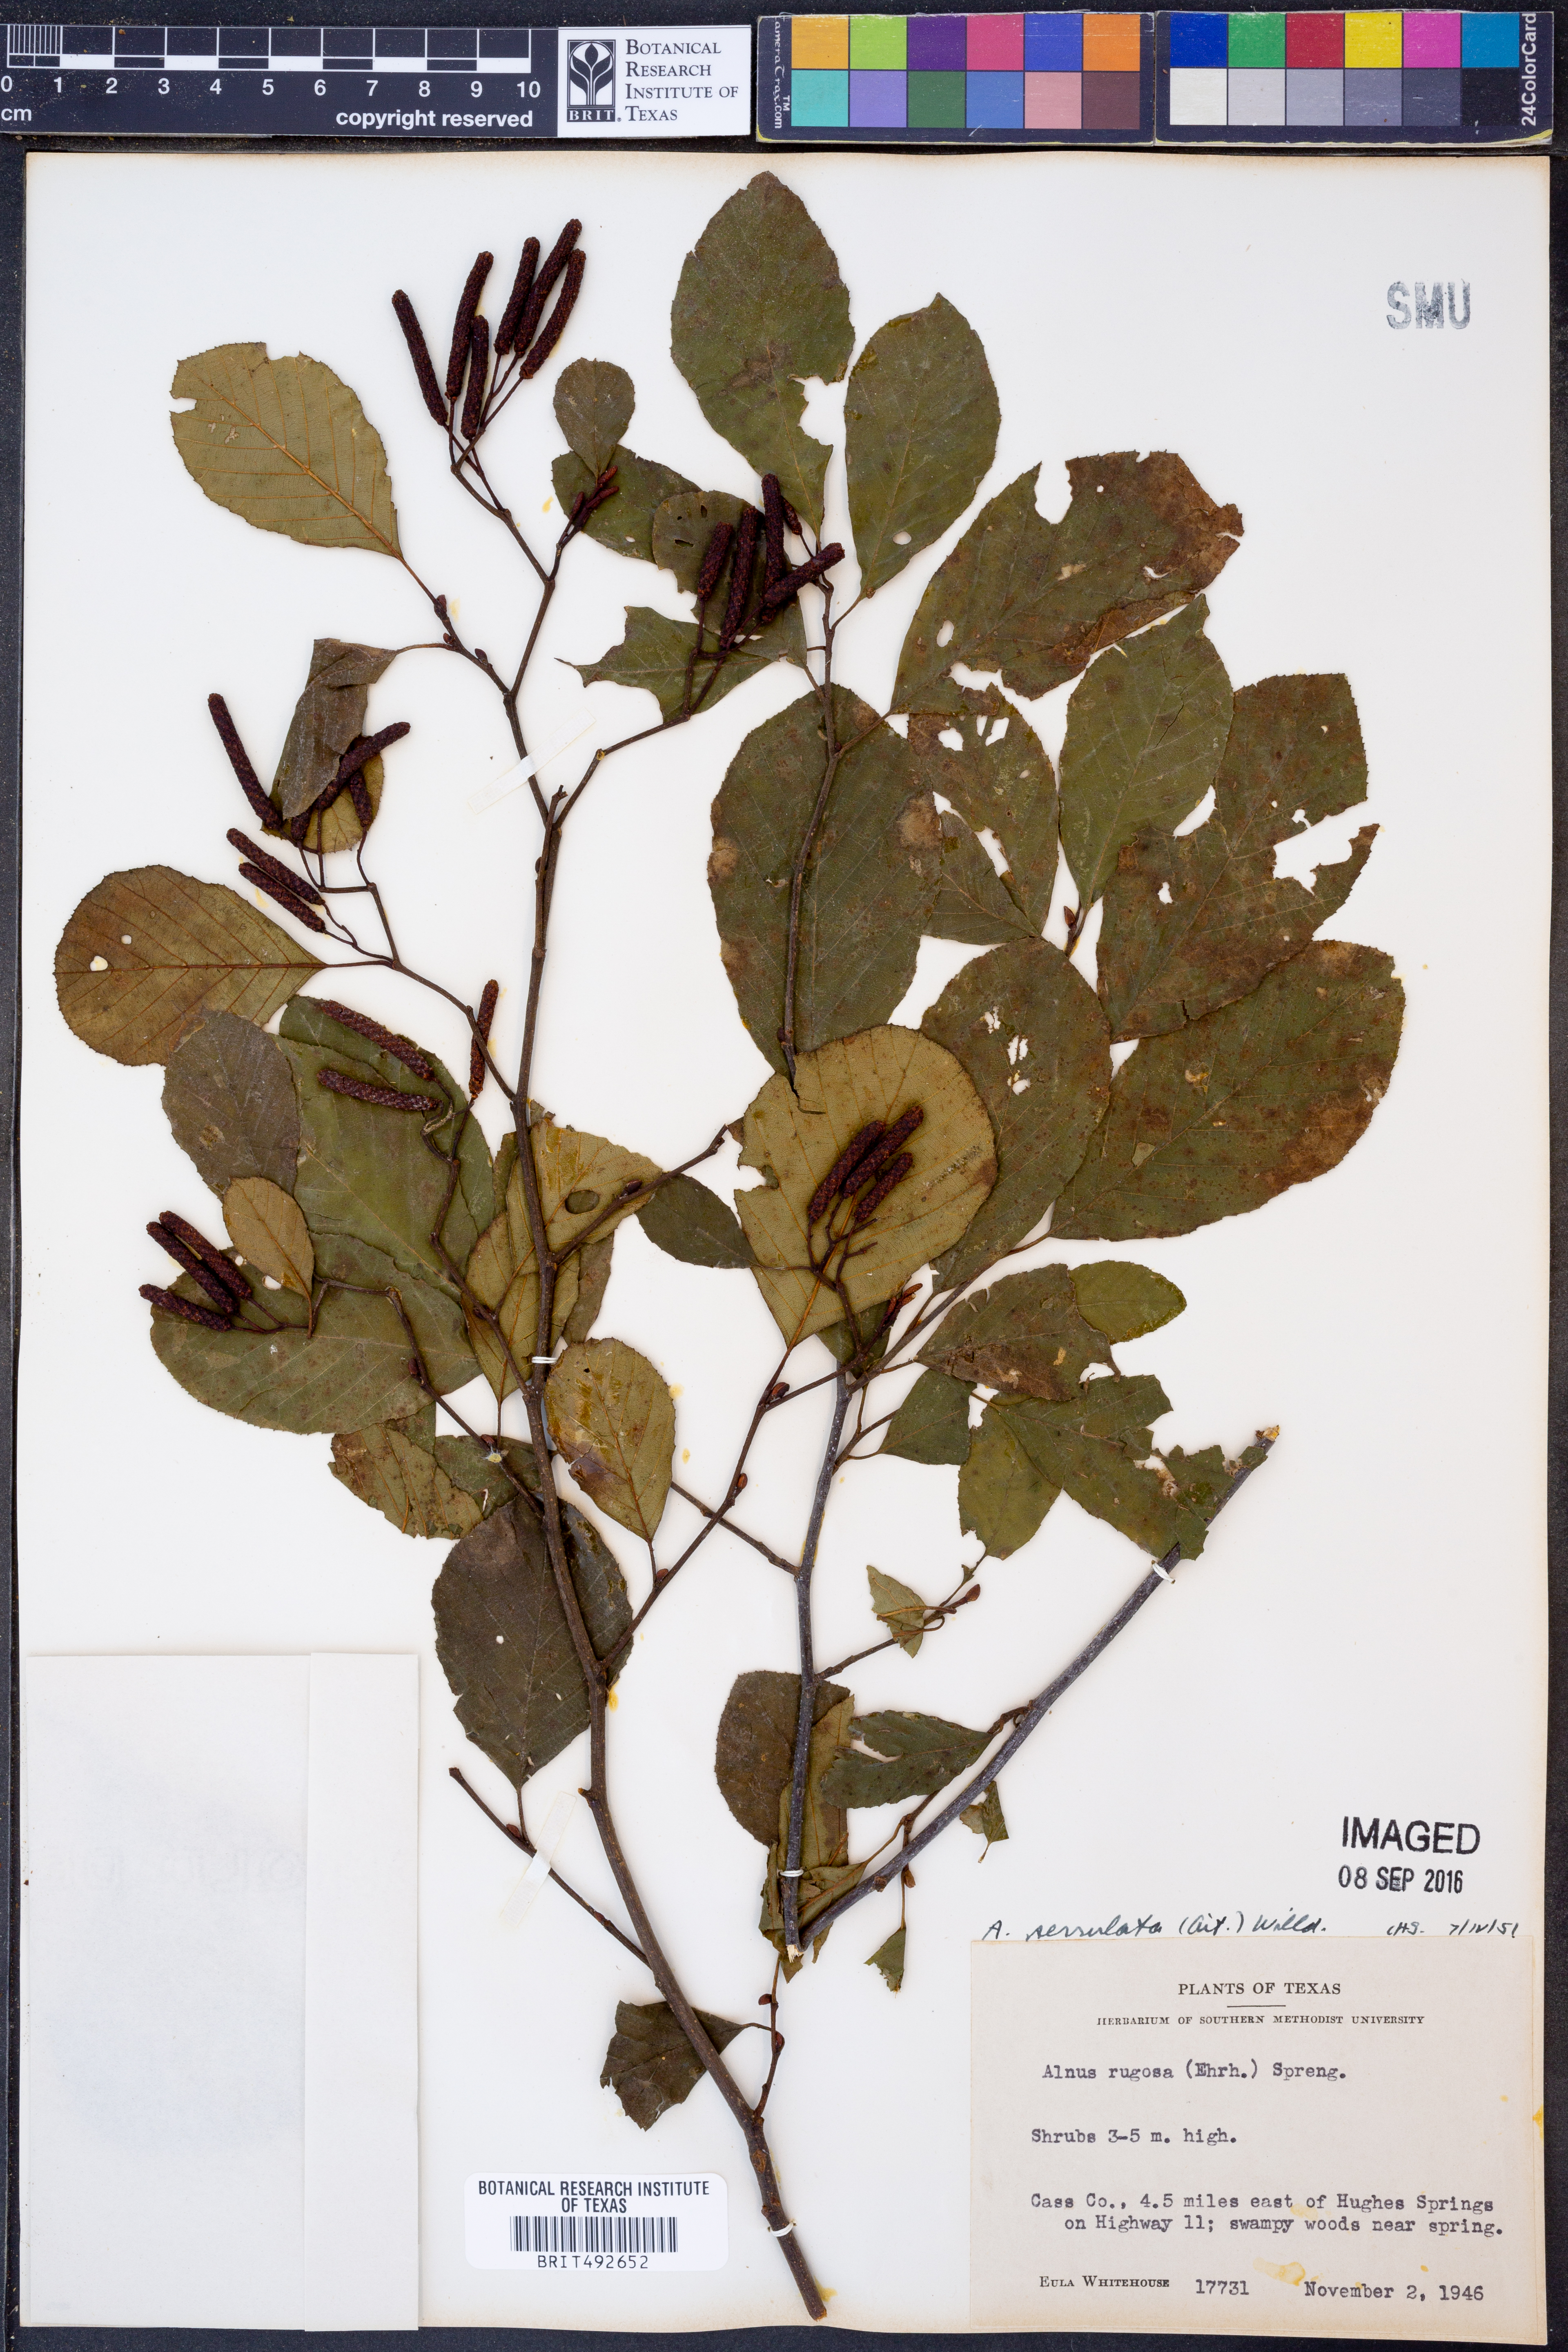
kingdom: Plantae
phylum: Tracheophyta
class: Magnoliopsida
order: Fagales
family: Betulaceae
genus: Alnus
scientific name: Alnus serrulata
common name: Hazel alder
